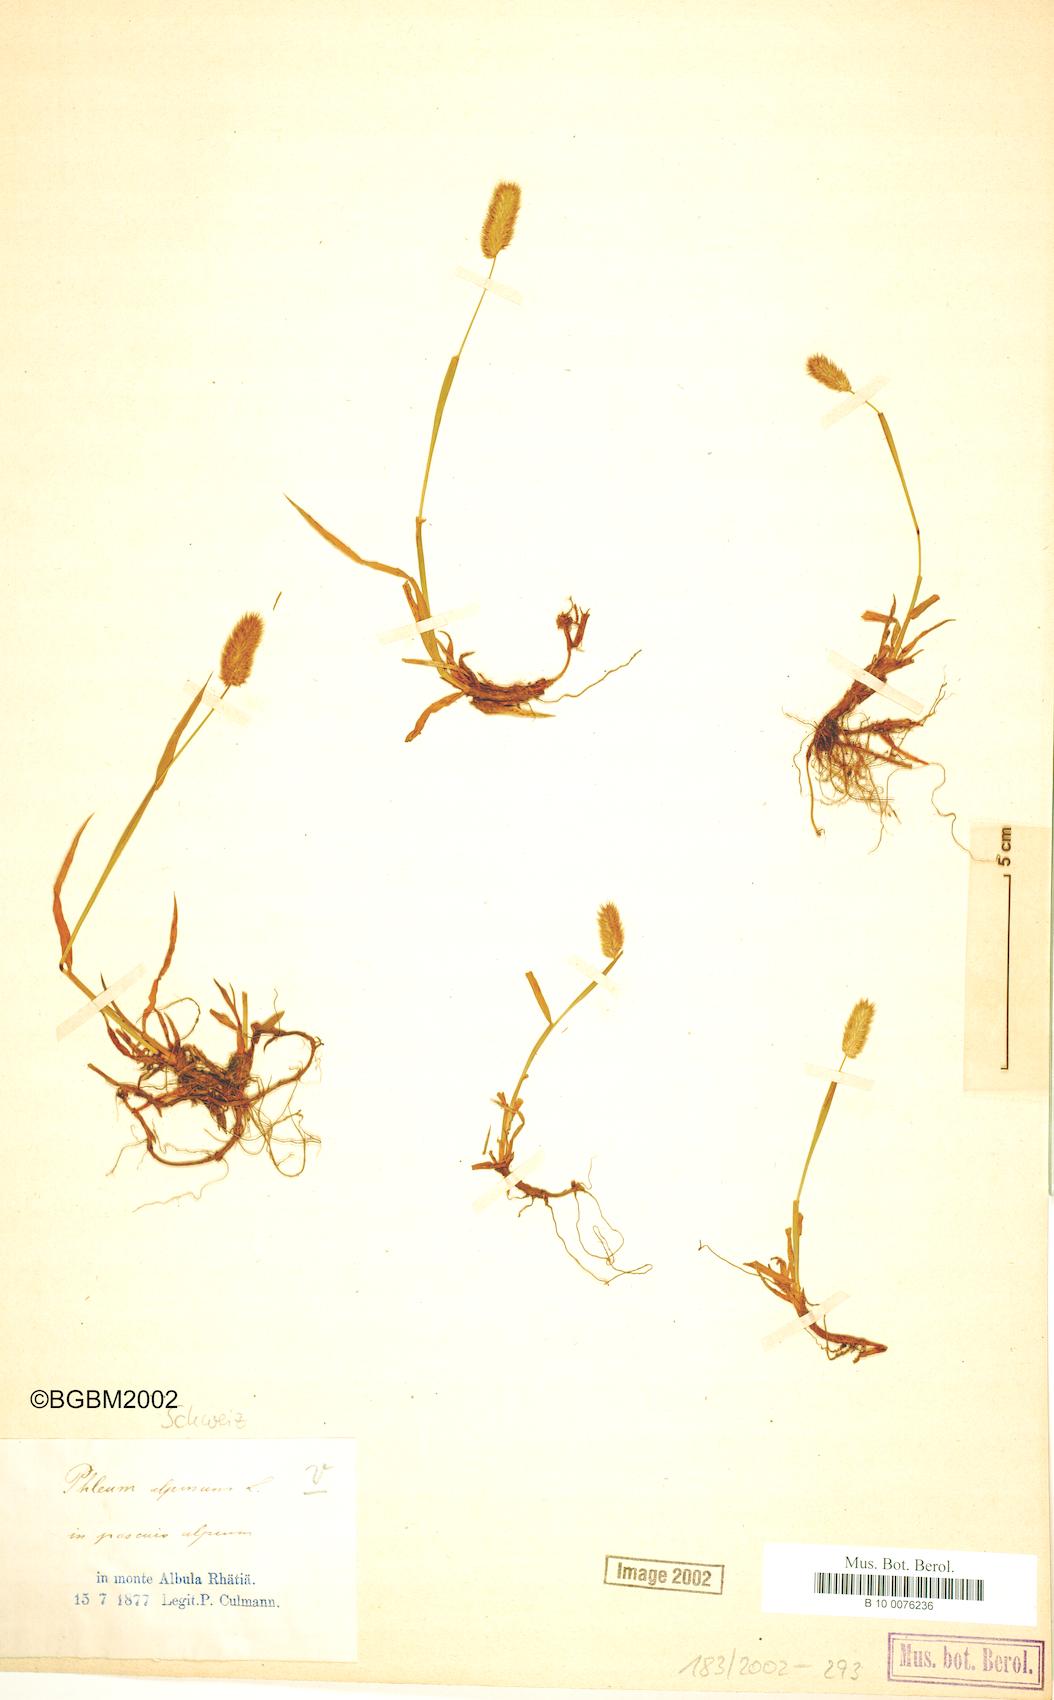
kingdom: Plantae
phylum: Tracheophyta
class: Liliopsida
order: Poales
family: Poaceae
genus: Phleum
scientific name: Phleum alpinum
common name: Alpine cat's-tail
